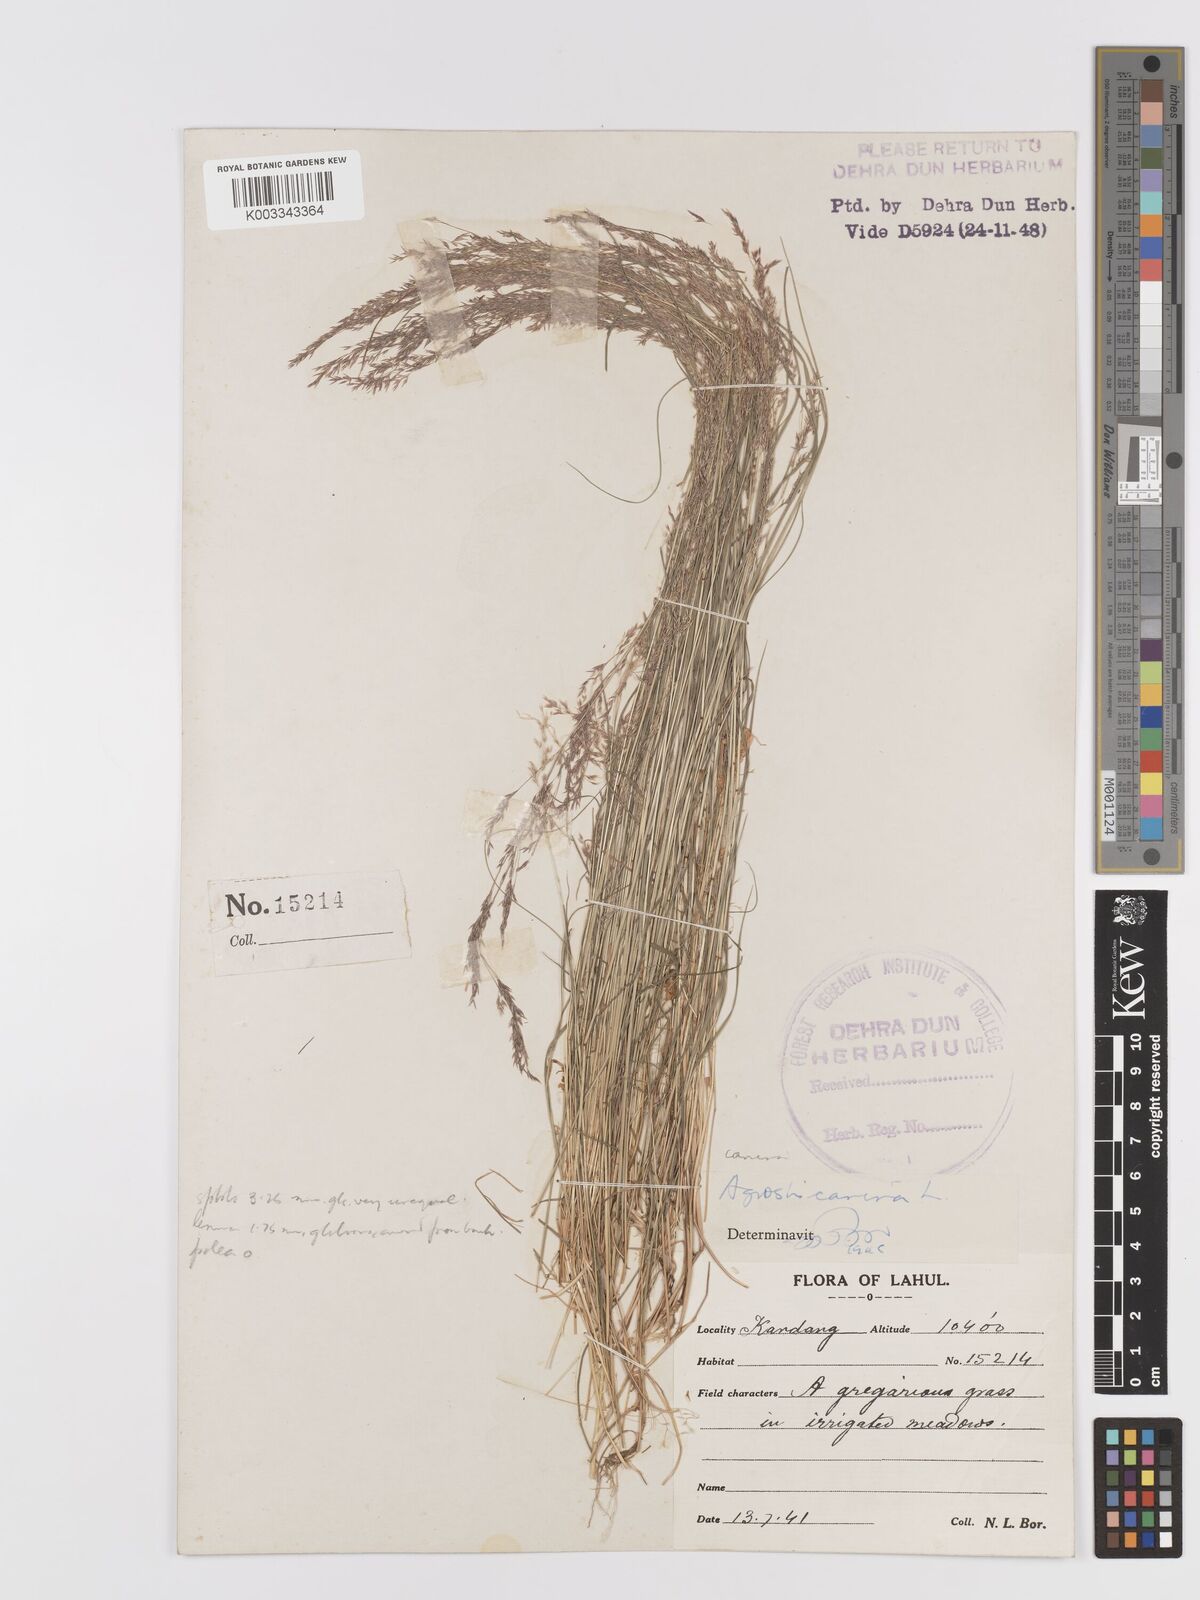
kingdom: Plantae
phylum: Tracheophyta
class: Liliopsida
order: Poales
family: Poaceae
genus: Agrostis
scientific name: Agrostis
